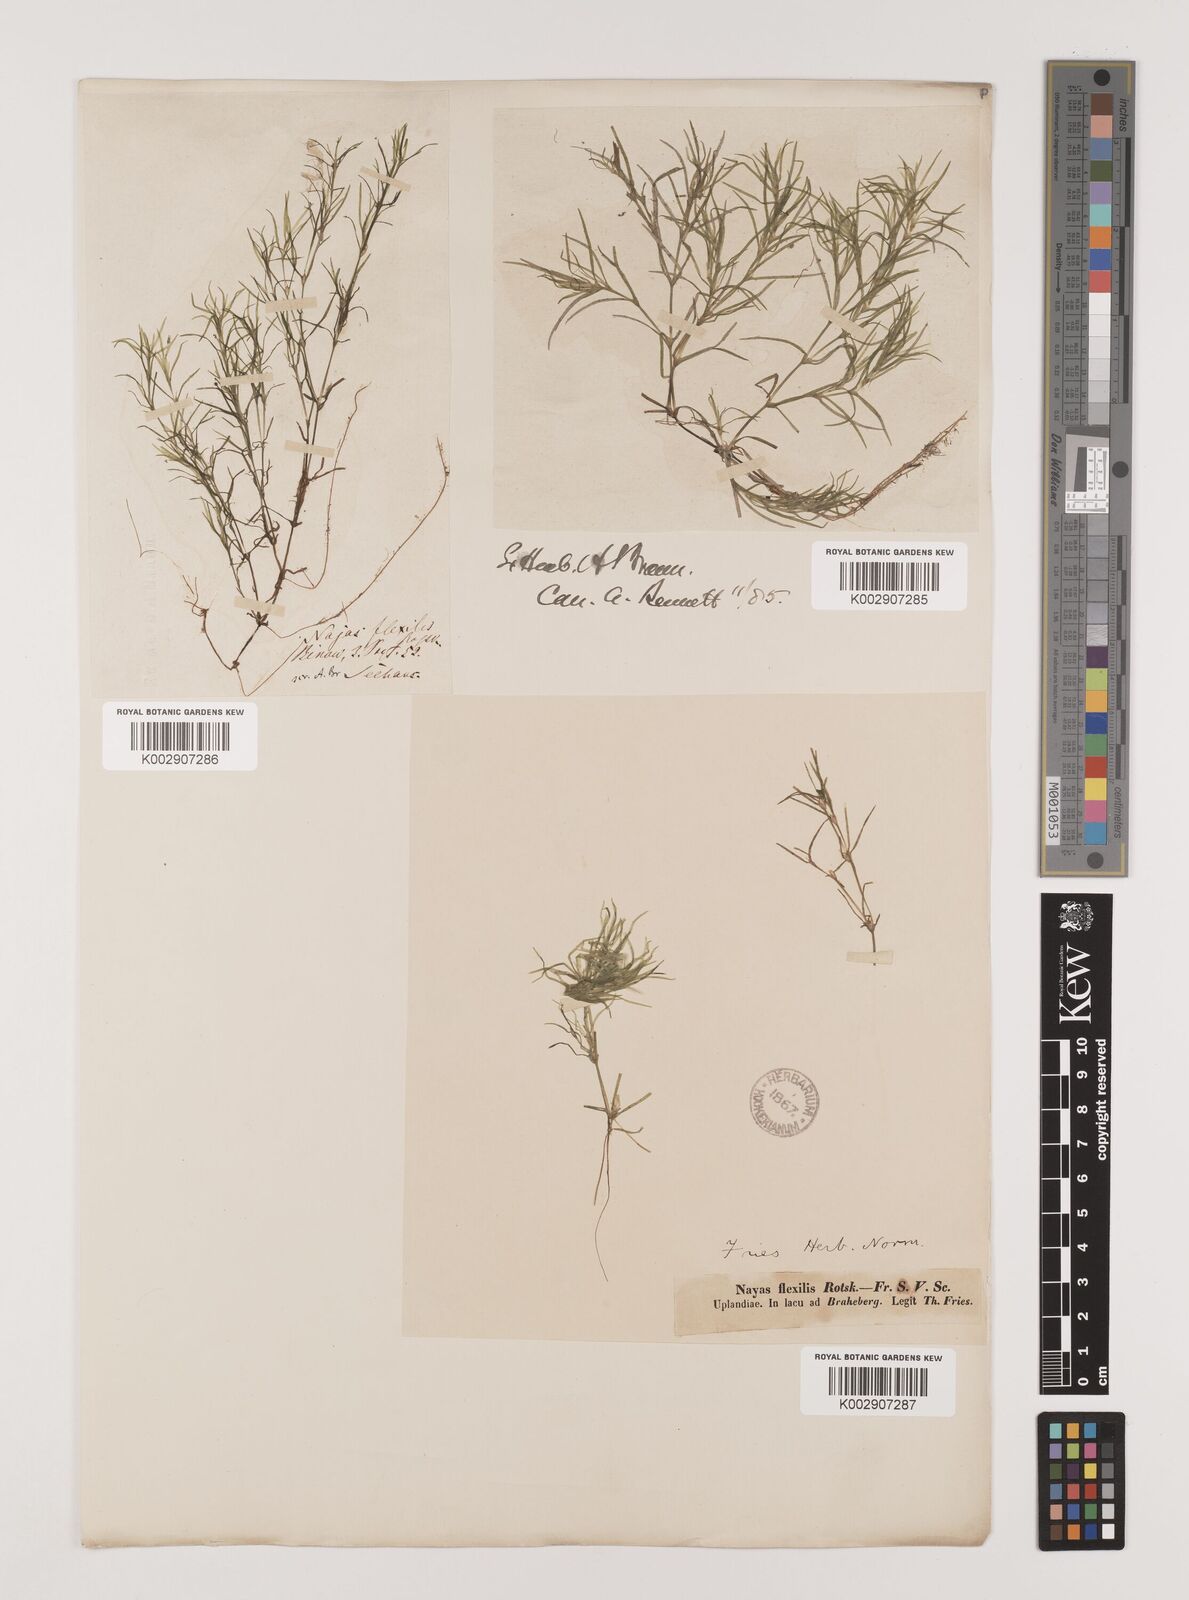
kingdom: Plantae
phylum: Tracheophyta
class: Liliopsida
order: Alismatales
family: Hydrocharitaceae
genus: Najas
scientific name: Najas flexilis
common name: Slender naiad
